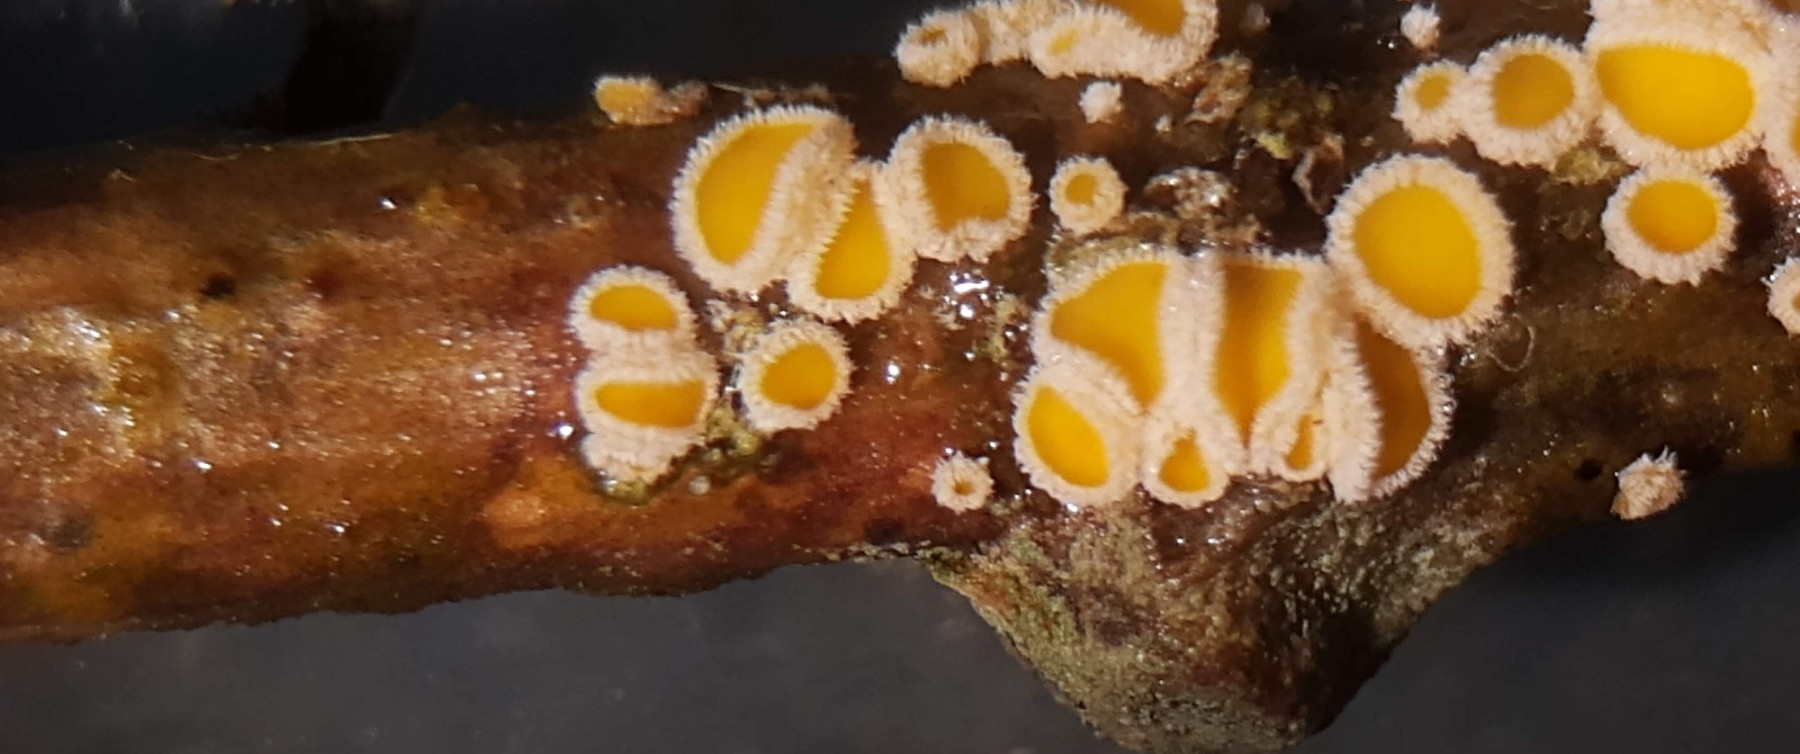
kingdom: Fungi
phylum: Ascomycota
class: Leotiomycetes
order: Helotiales
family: Lachnaceae
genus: Capitotricha
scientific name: Capitotricha bicolor
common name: prægtig frynseskive
